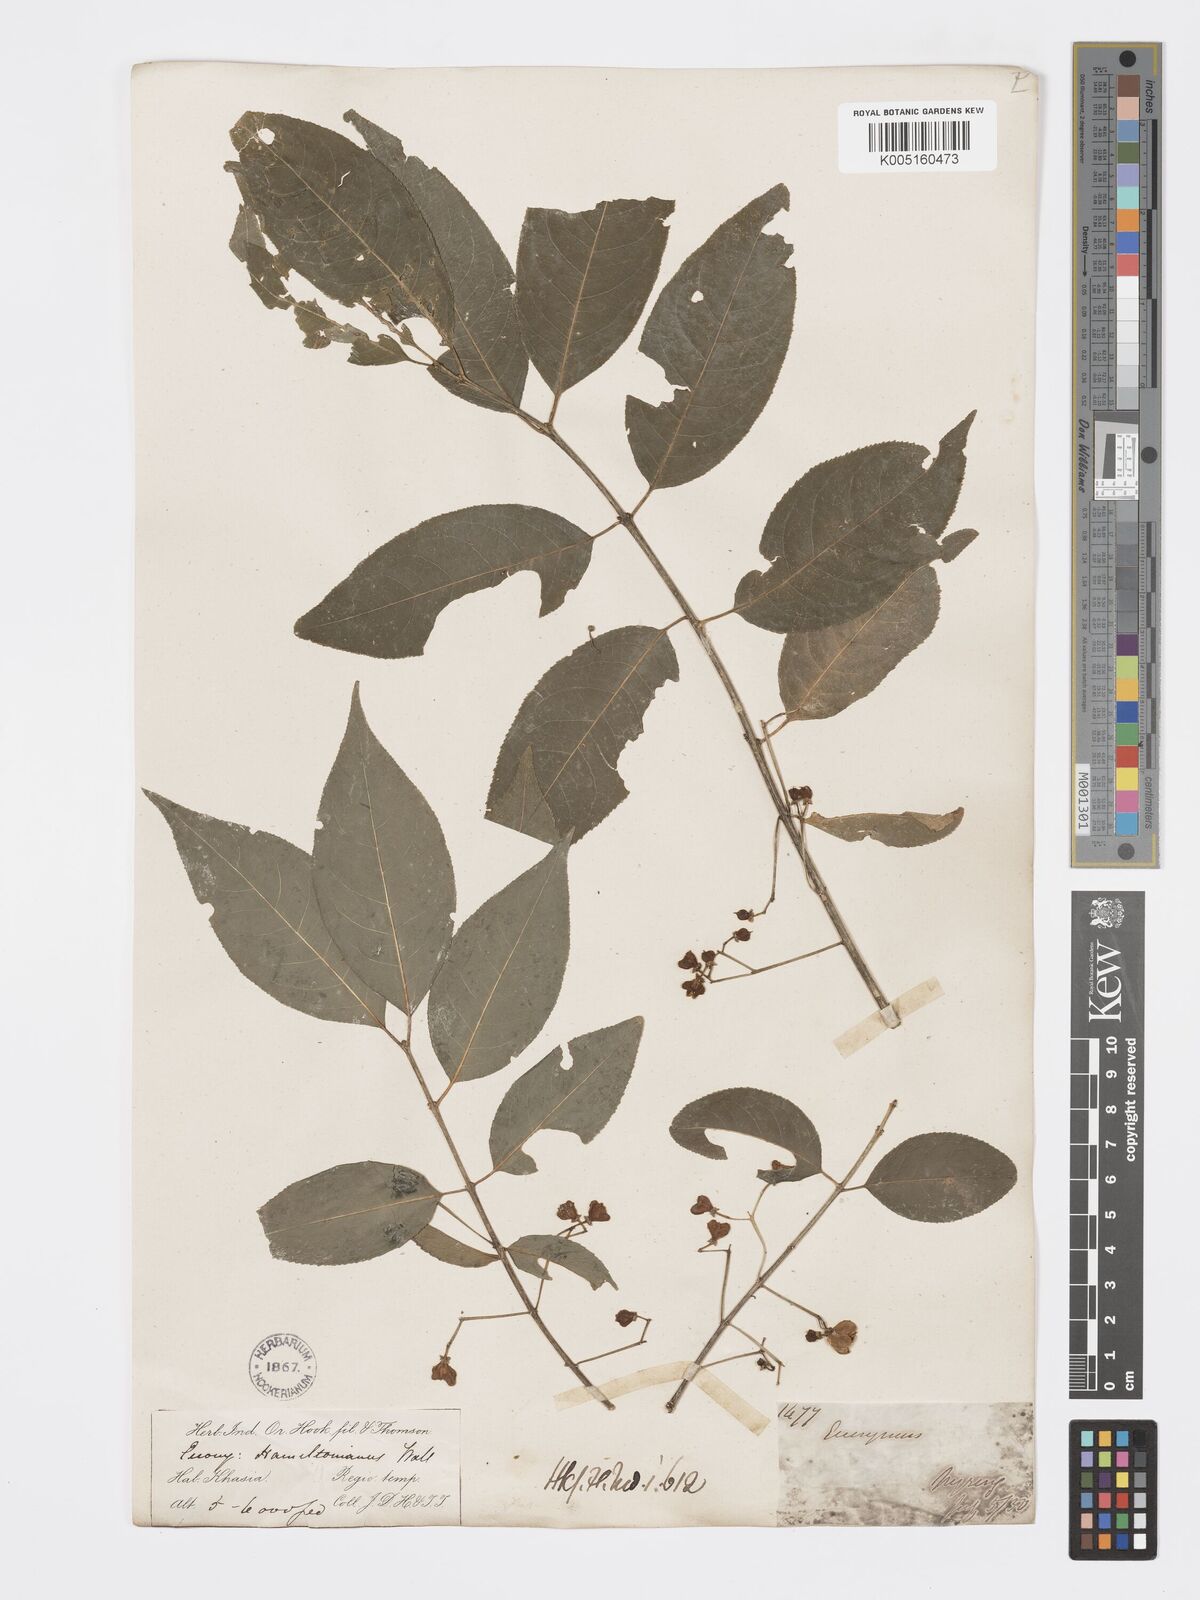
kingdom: Plantae
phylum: Tracheophyta
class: Magnoliopsida
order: Celastrales
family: Celastraceae
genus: Euonymus
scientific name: Euonymus
